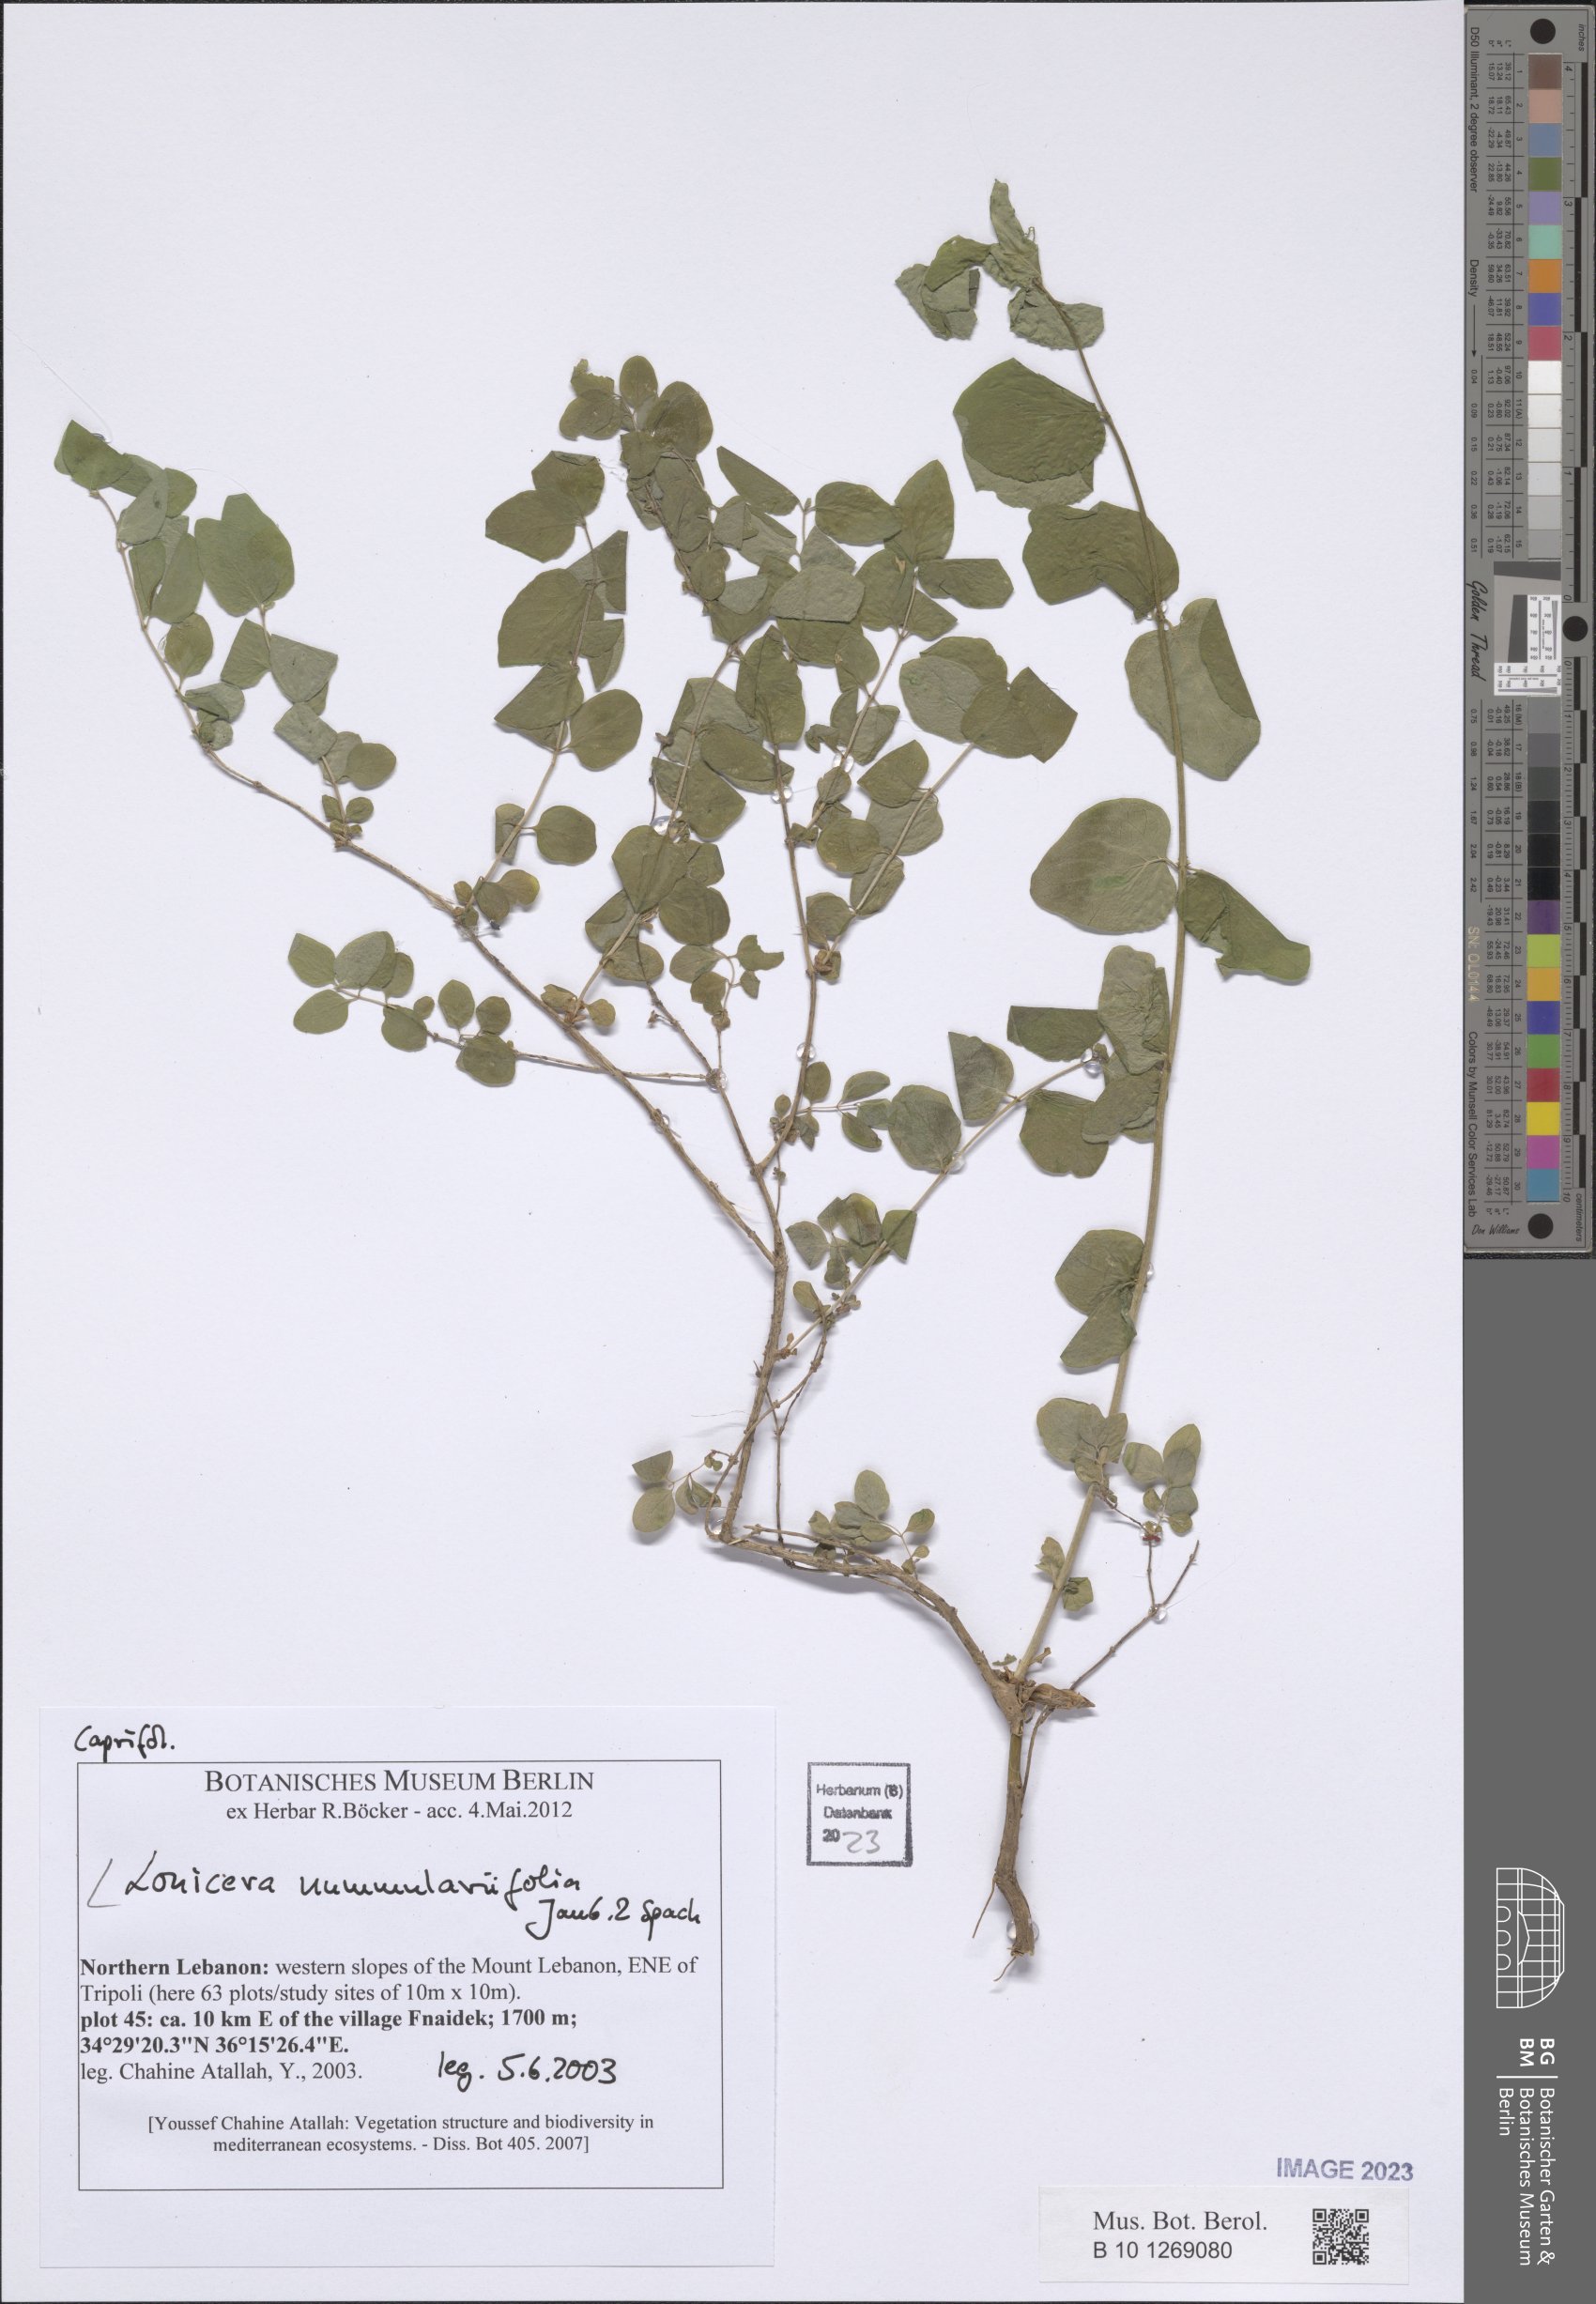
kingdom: Plantae
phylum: Tracheophyta
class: Magnoliopsida
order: Dipsacales
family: Caprifoliaceae
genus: Lonicera
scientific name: Lonicera nummulariifolia
